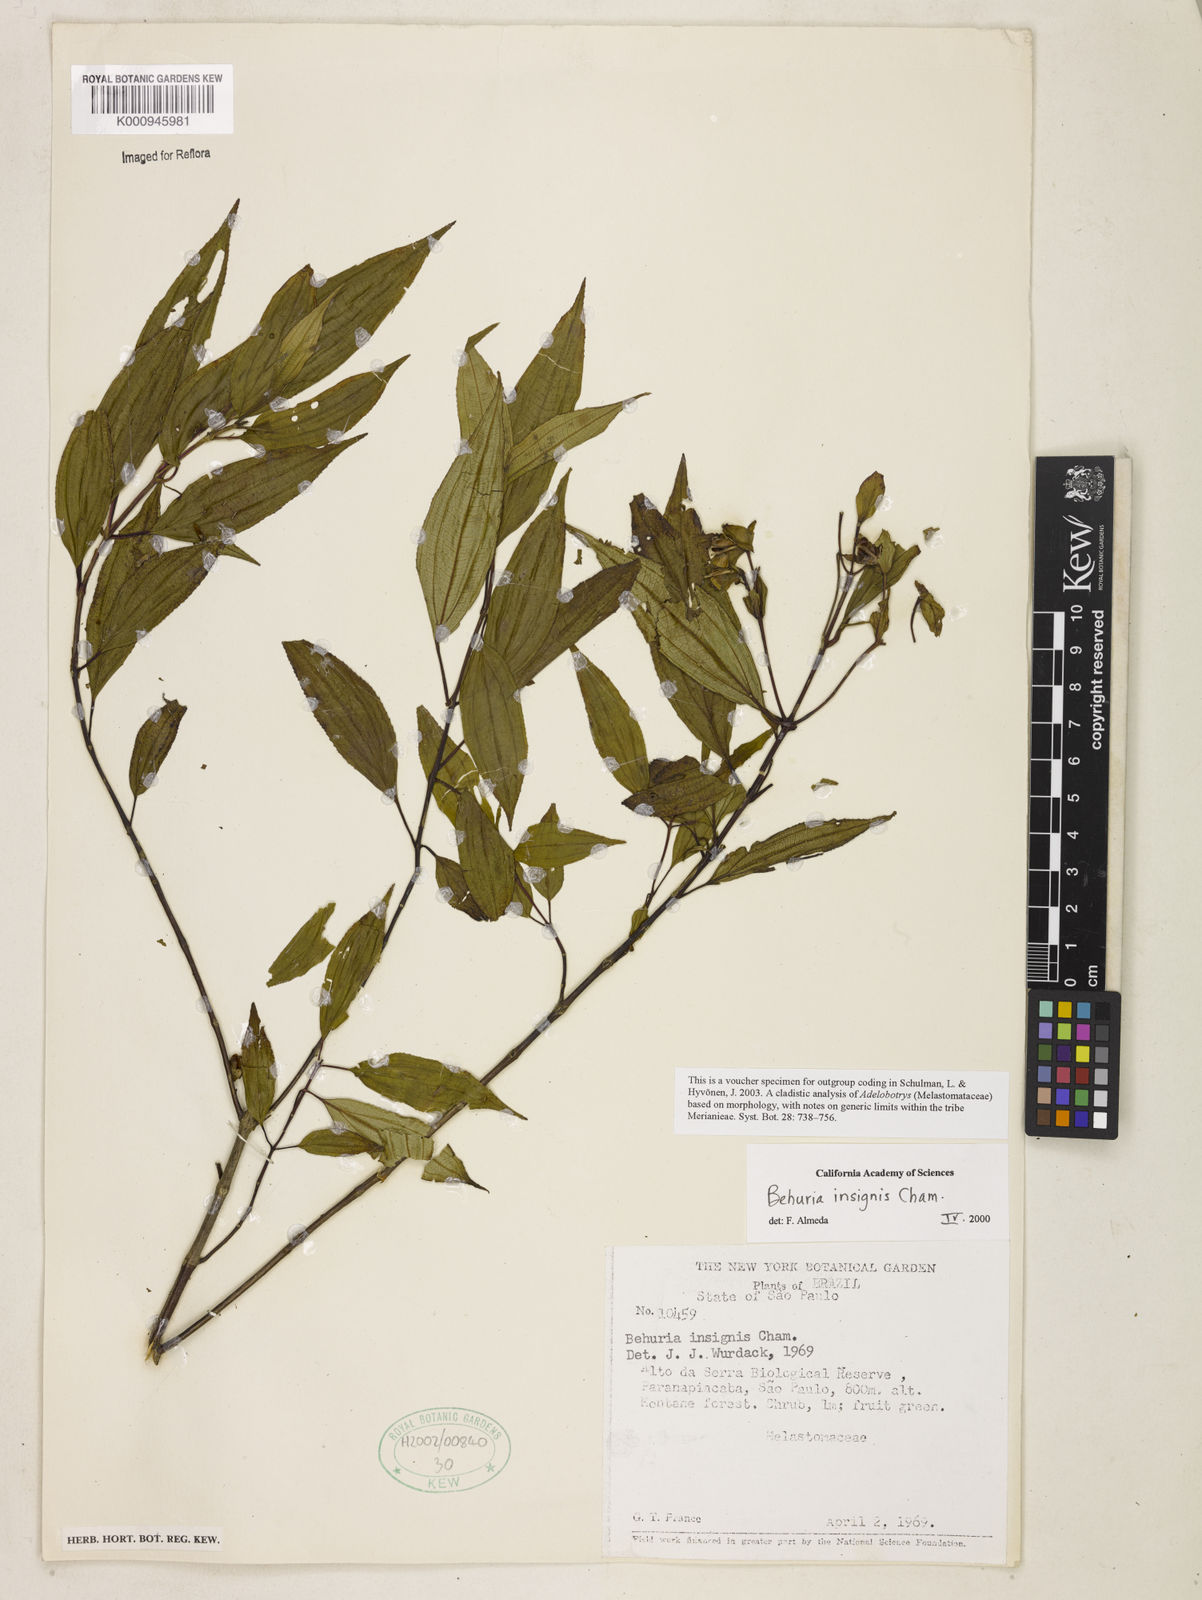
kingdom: Plantae
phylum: Tracheophyta
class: Magnoliopsida
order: Myrtales
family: Melastomataceae
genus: Huberia
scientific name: Huberia insignis
